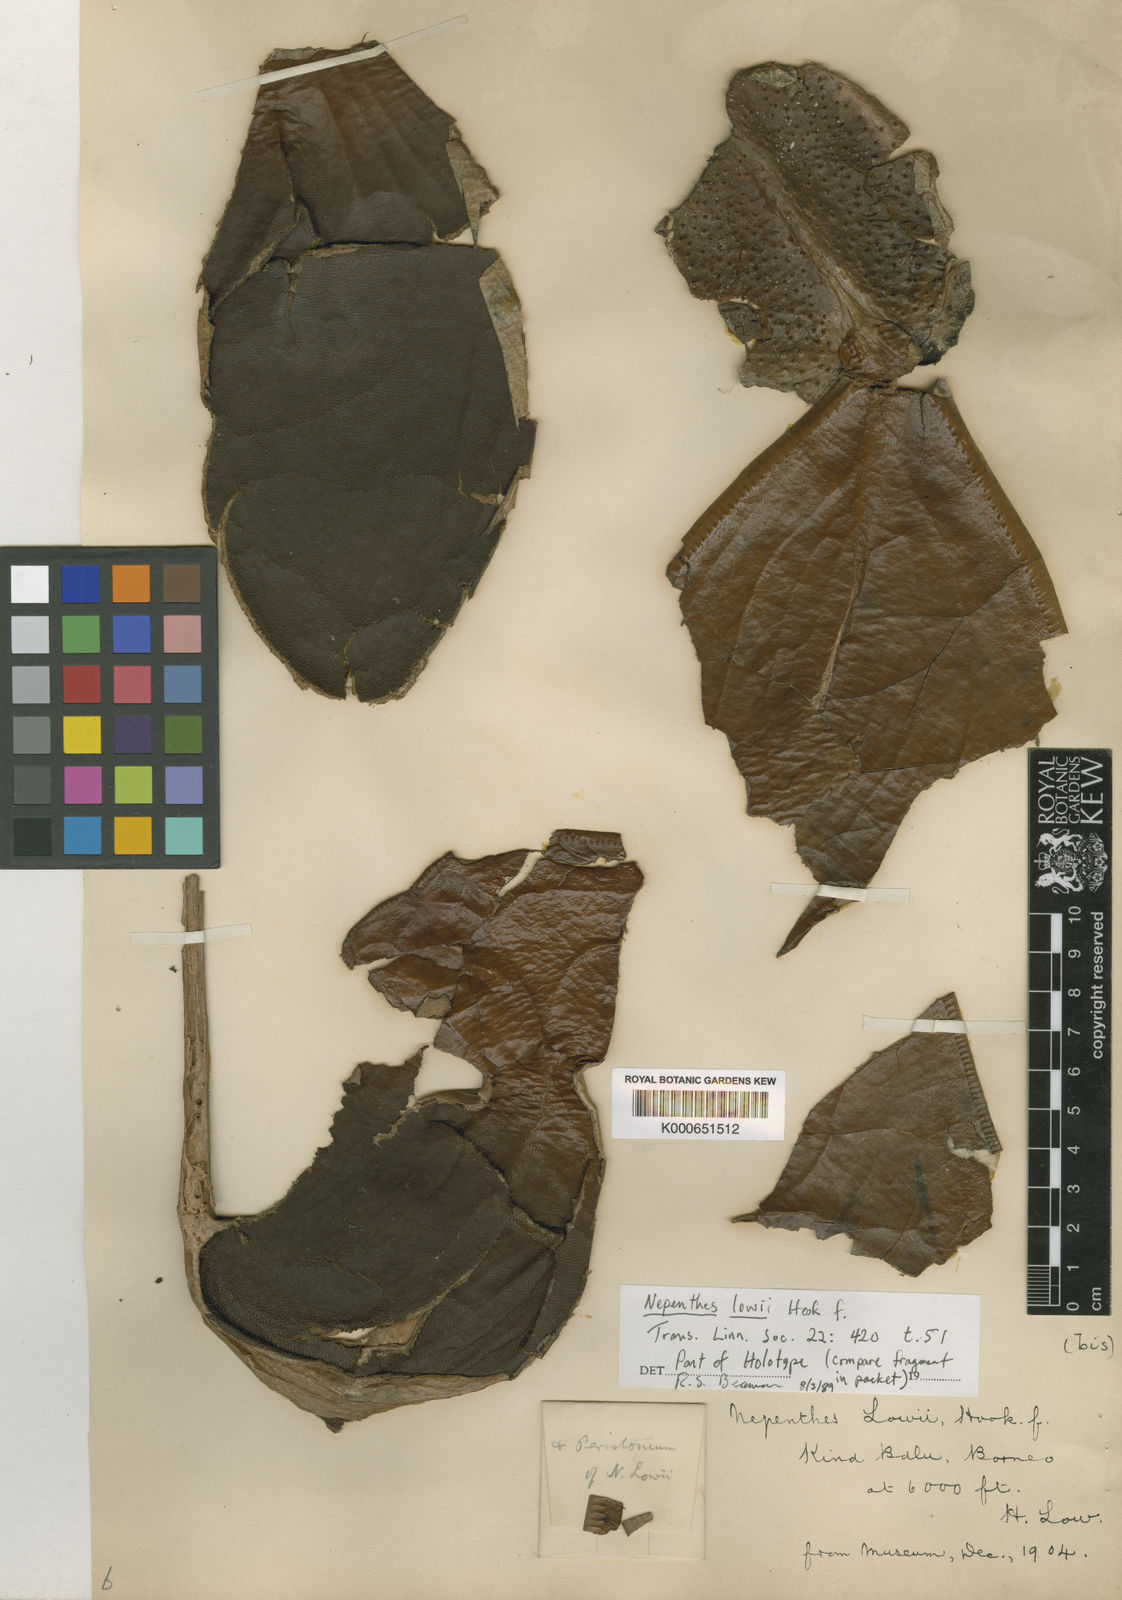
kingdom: Plantae
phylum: Tracheophyta
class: Magnoliopsida
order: Caryophyllales
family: Nepenthaceae
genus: Nepenthes
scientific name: Nepenthes lowii
